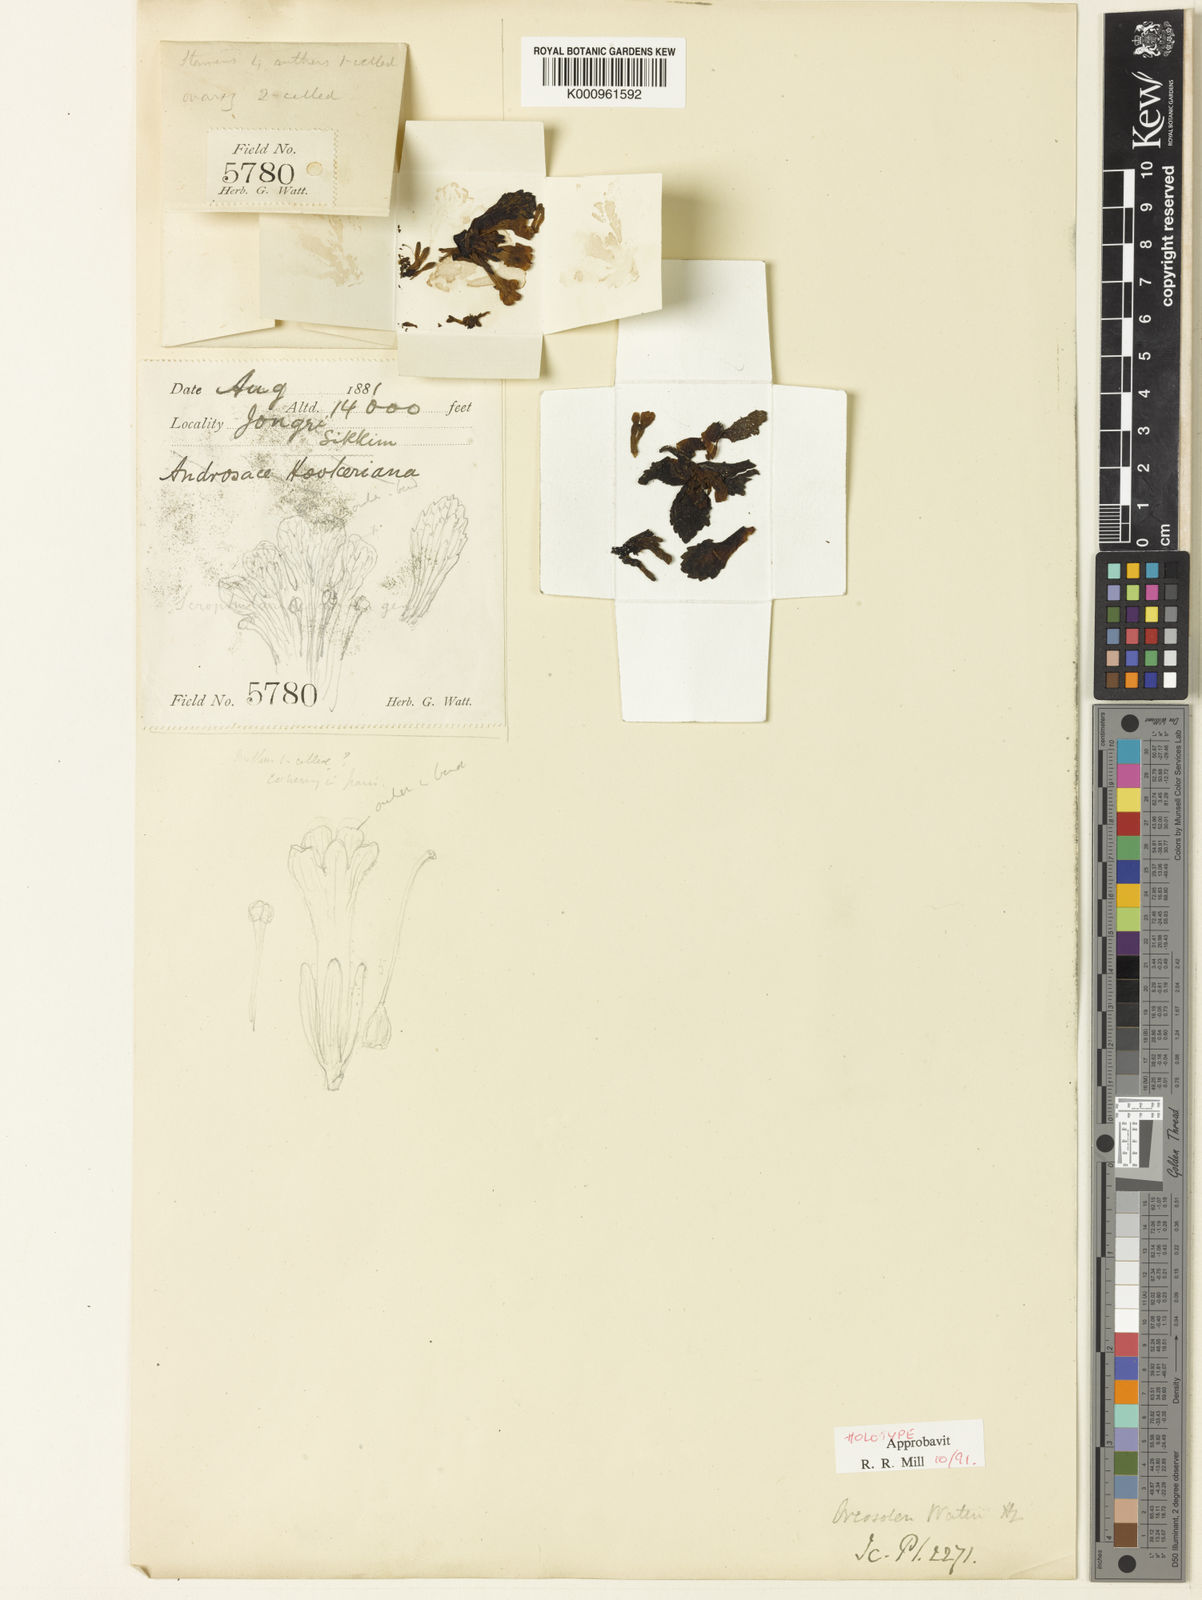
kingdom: Plantae
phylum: Tracheophyta
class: Magnoliopsida
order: Lamiales
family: Scrophulariaceae
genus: Scrophularia
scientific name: Scrophularia wattii
